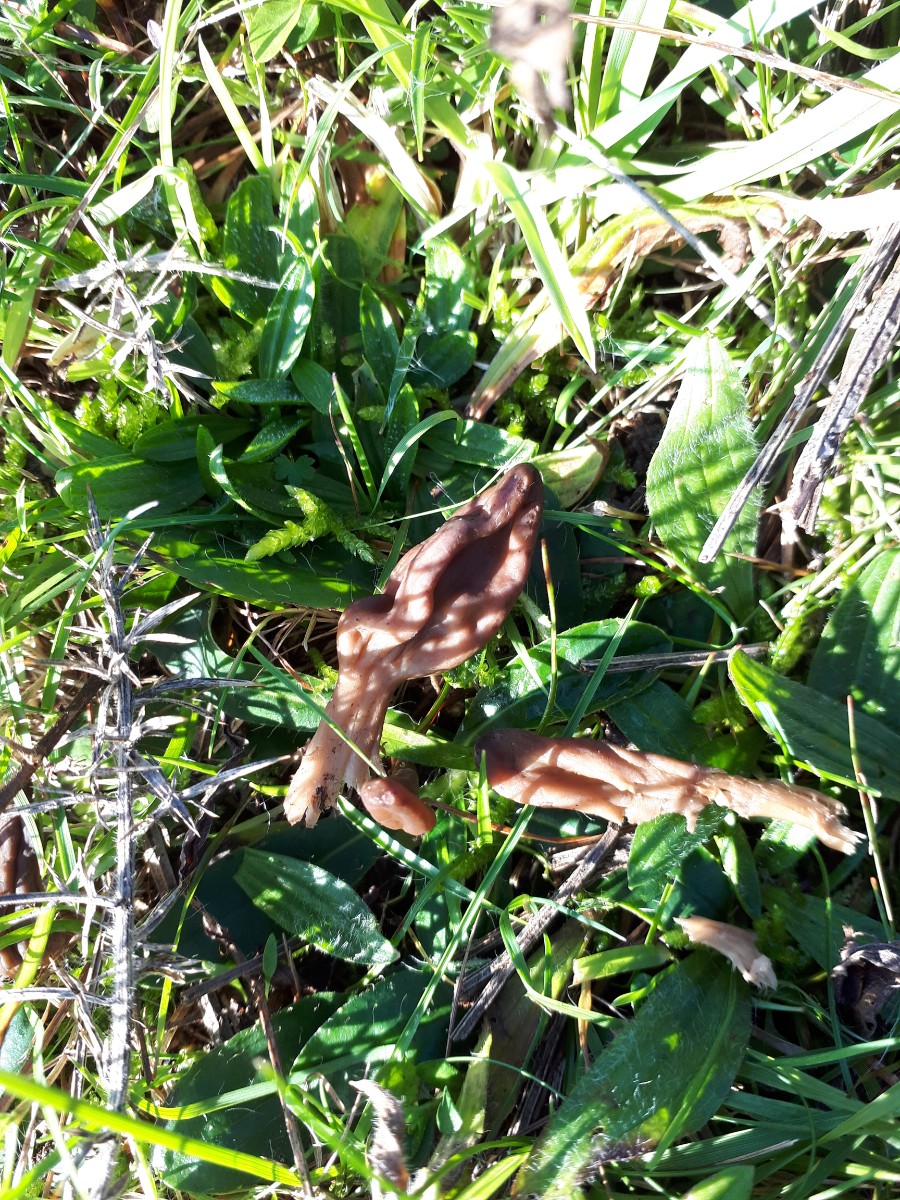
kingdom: Fungi
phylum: Ascomycota
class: Leotiomycetes
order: Leotiales
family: Leotiaceae
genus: Microglossum
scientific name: Microglossum olivaceum
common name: olivenbrun farvetunge
